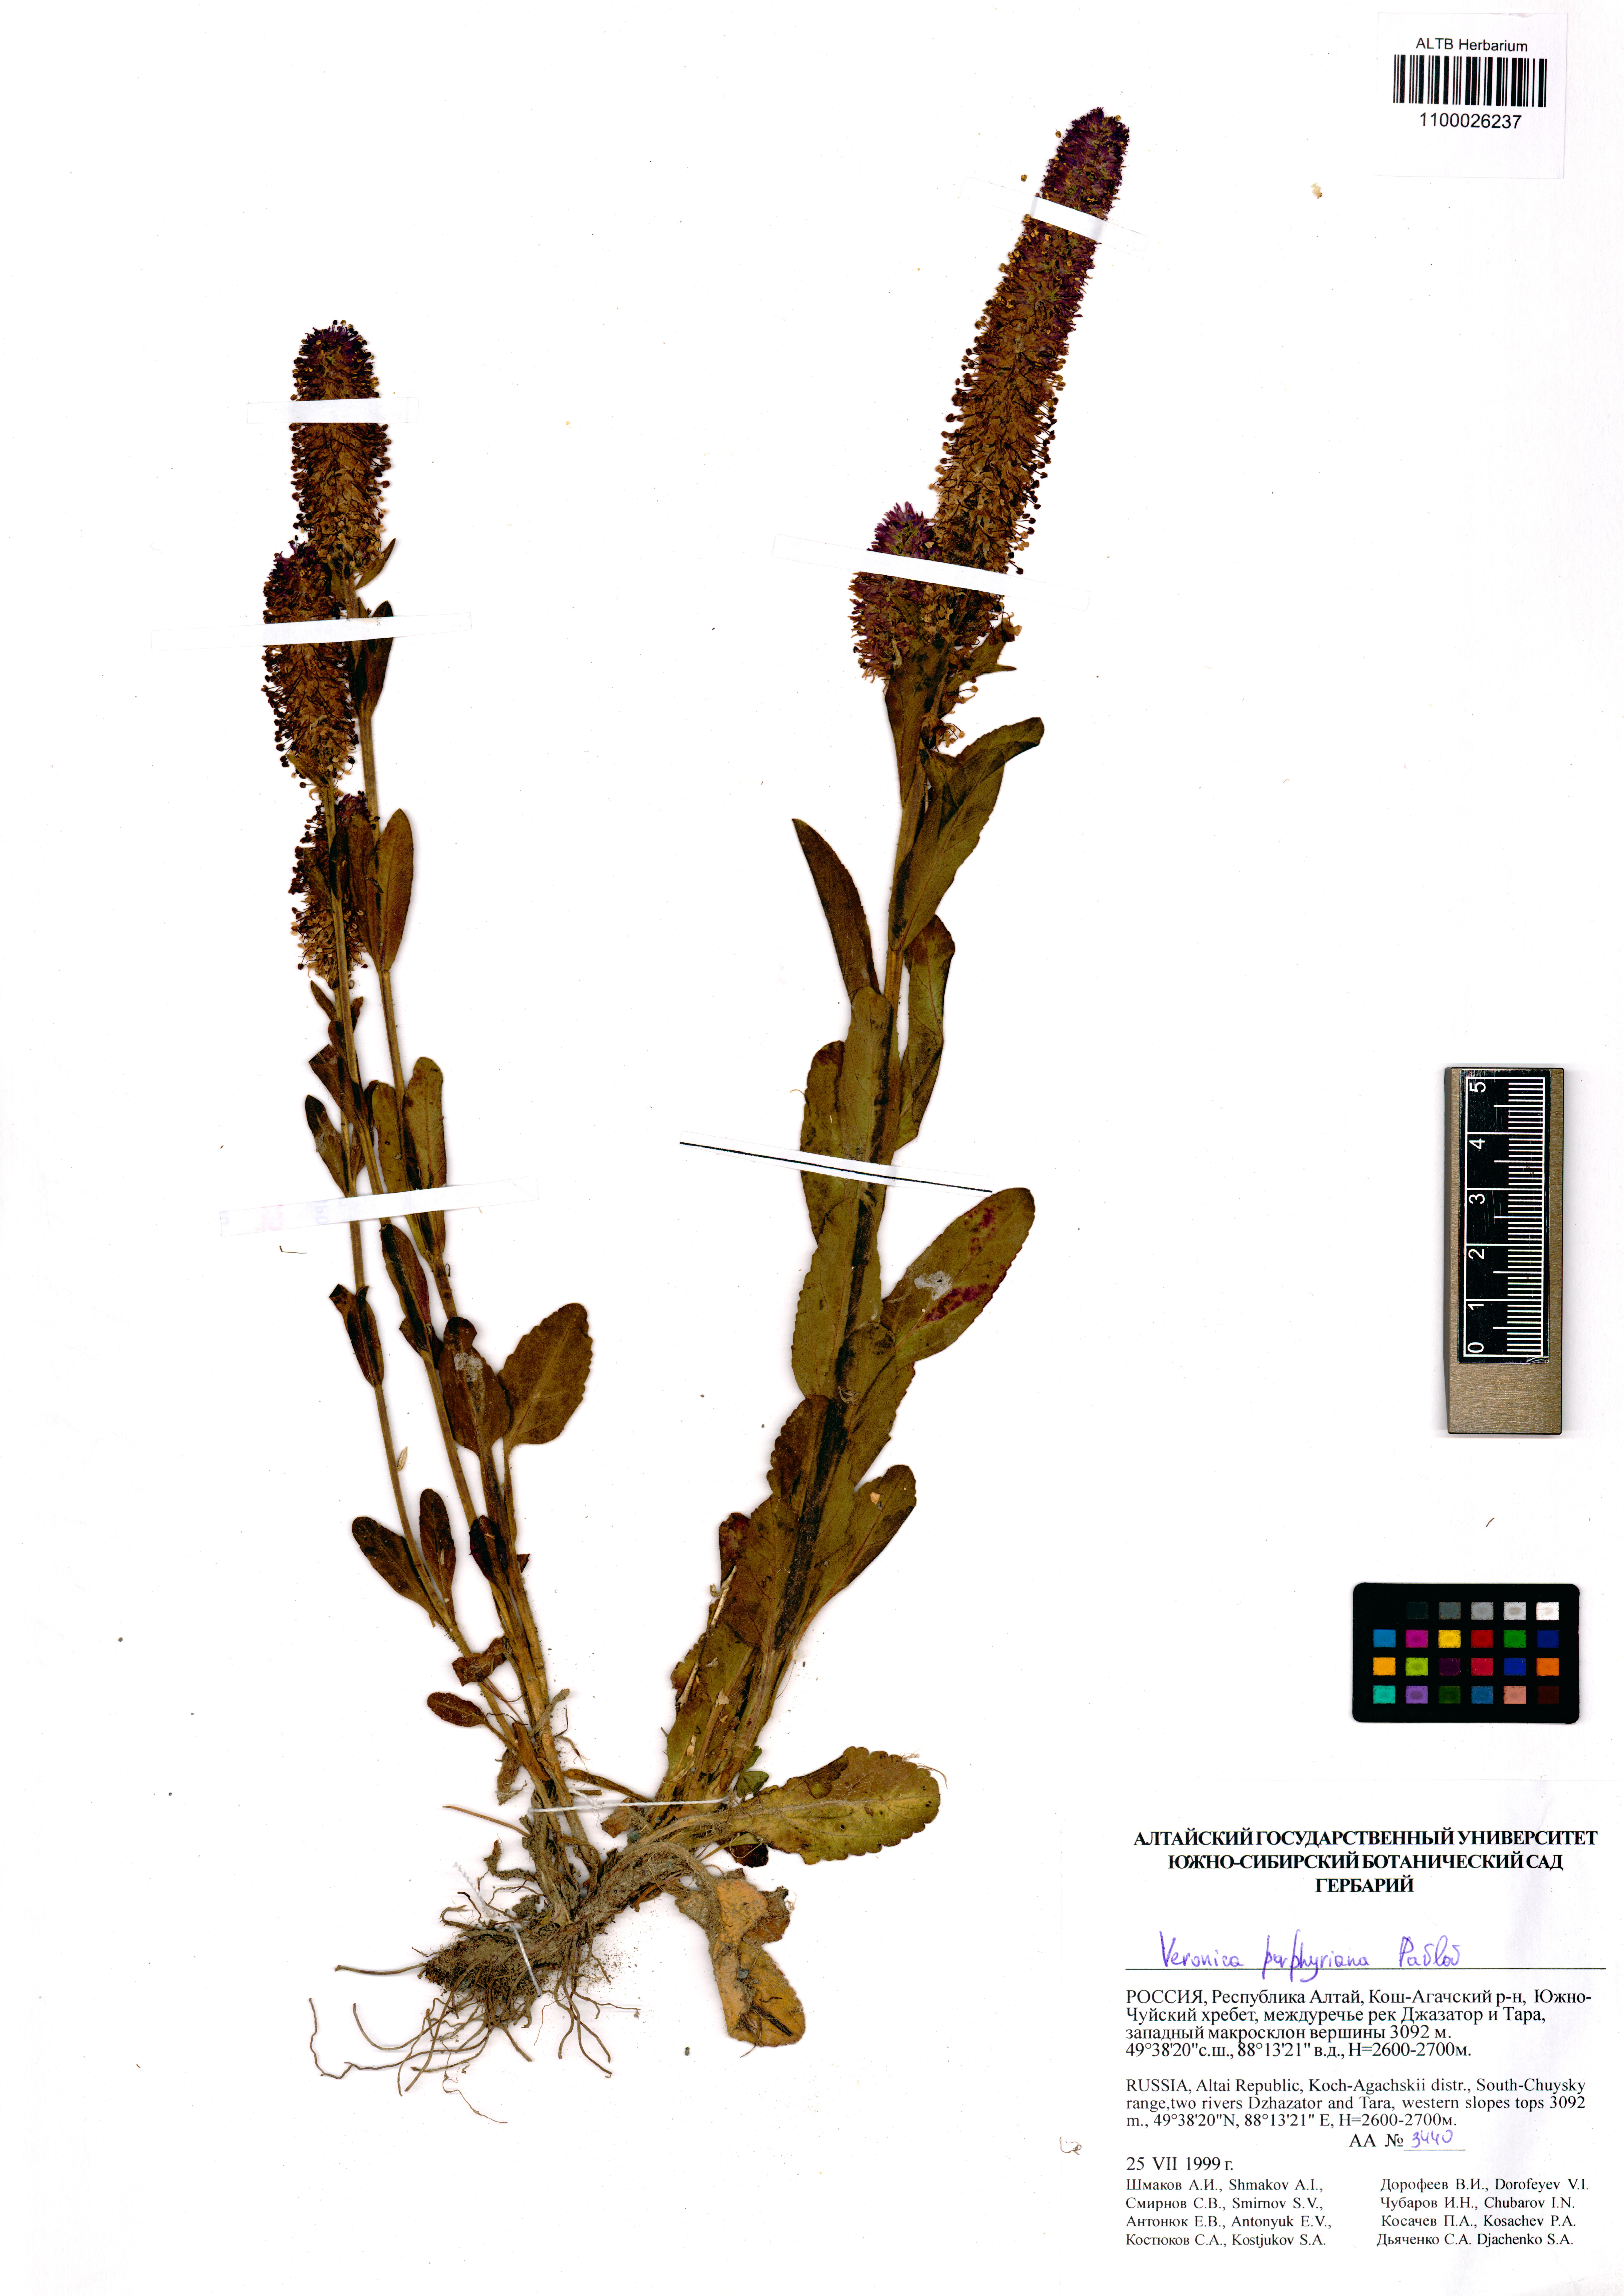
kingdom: Plantae
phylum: Tracheophyta
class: Magnoliopsida
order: Lamiales
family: Plantaginaceae
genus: Veronica
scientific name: Veronica porphyriana
